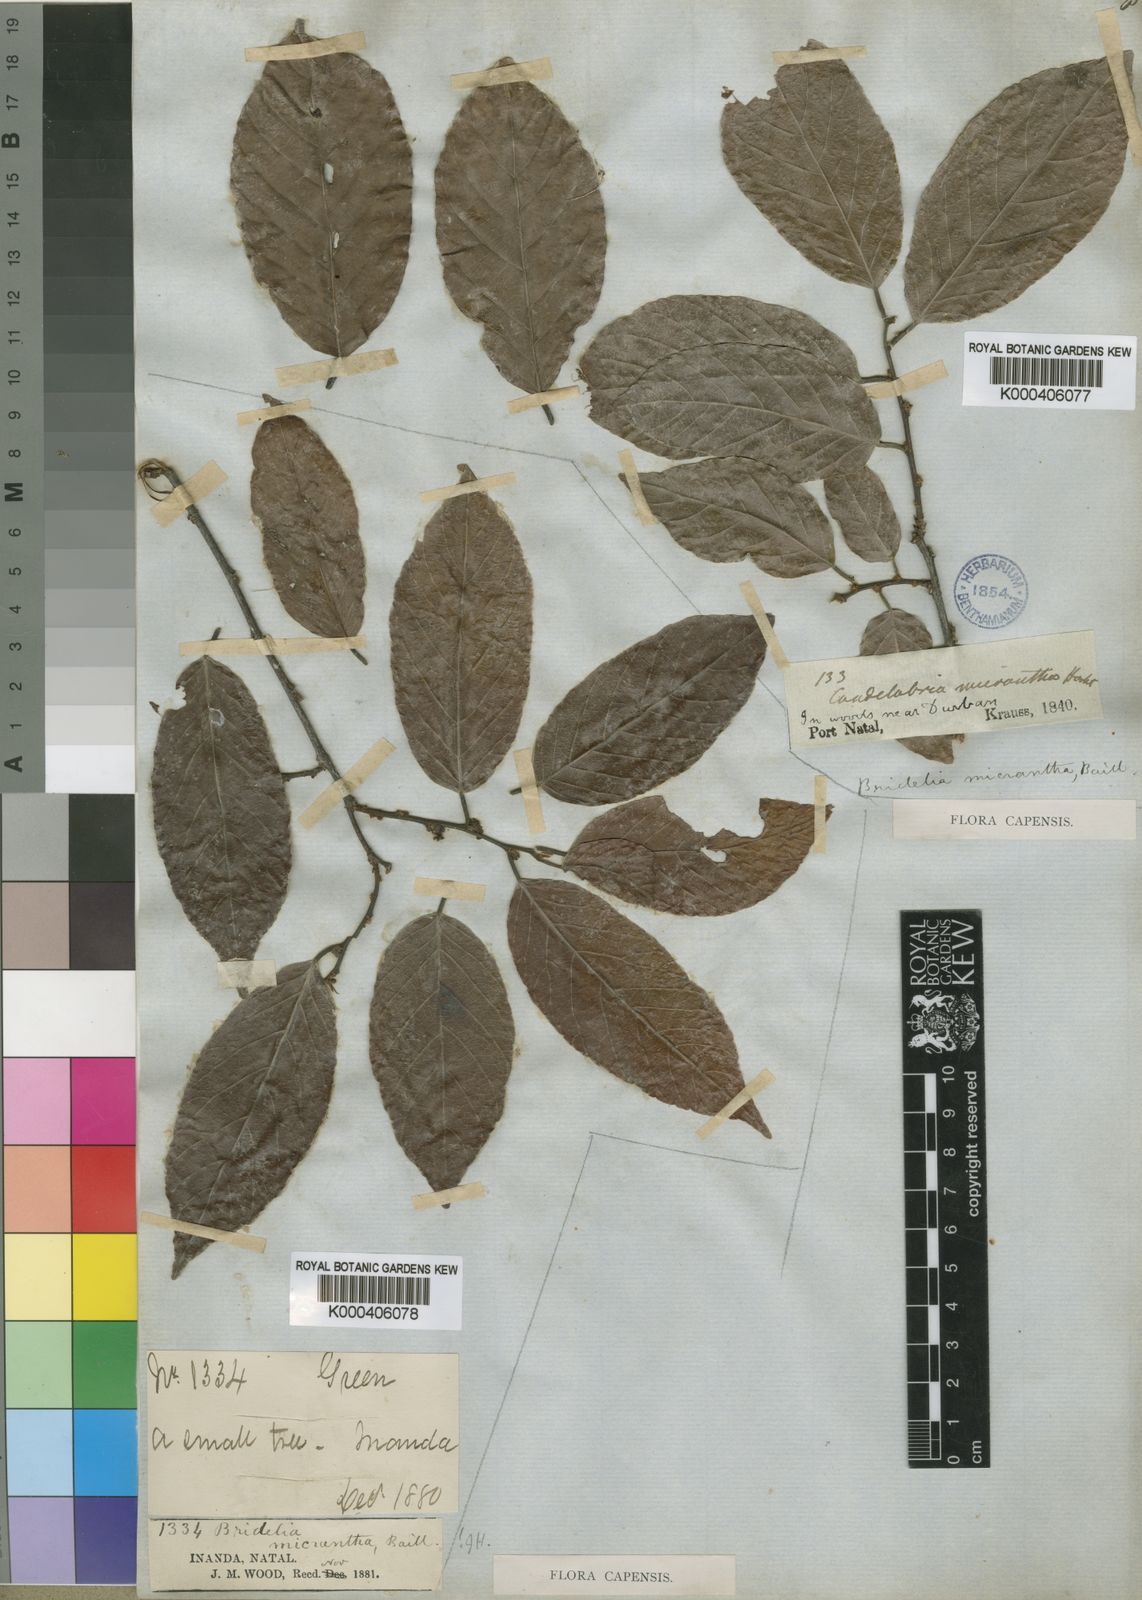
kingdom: Plantae
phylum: Tracheophyta
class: Magnoliopsida
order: Malpighiales
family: Phyllanthaceae
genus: Bridelia
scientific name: Bridelia micrantha
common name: Bridelia
